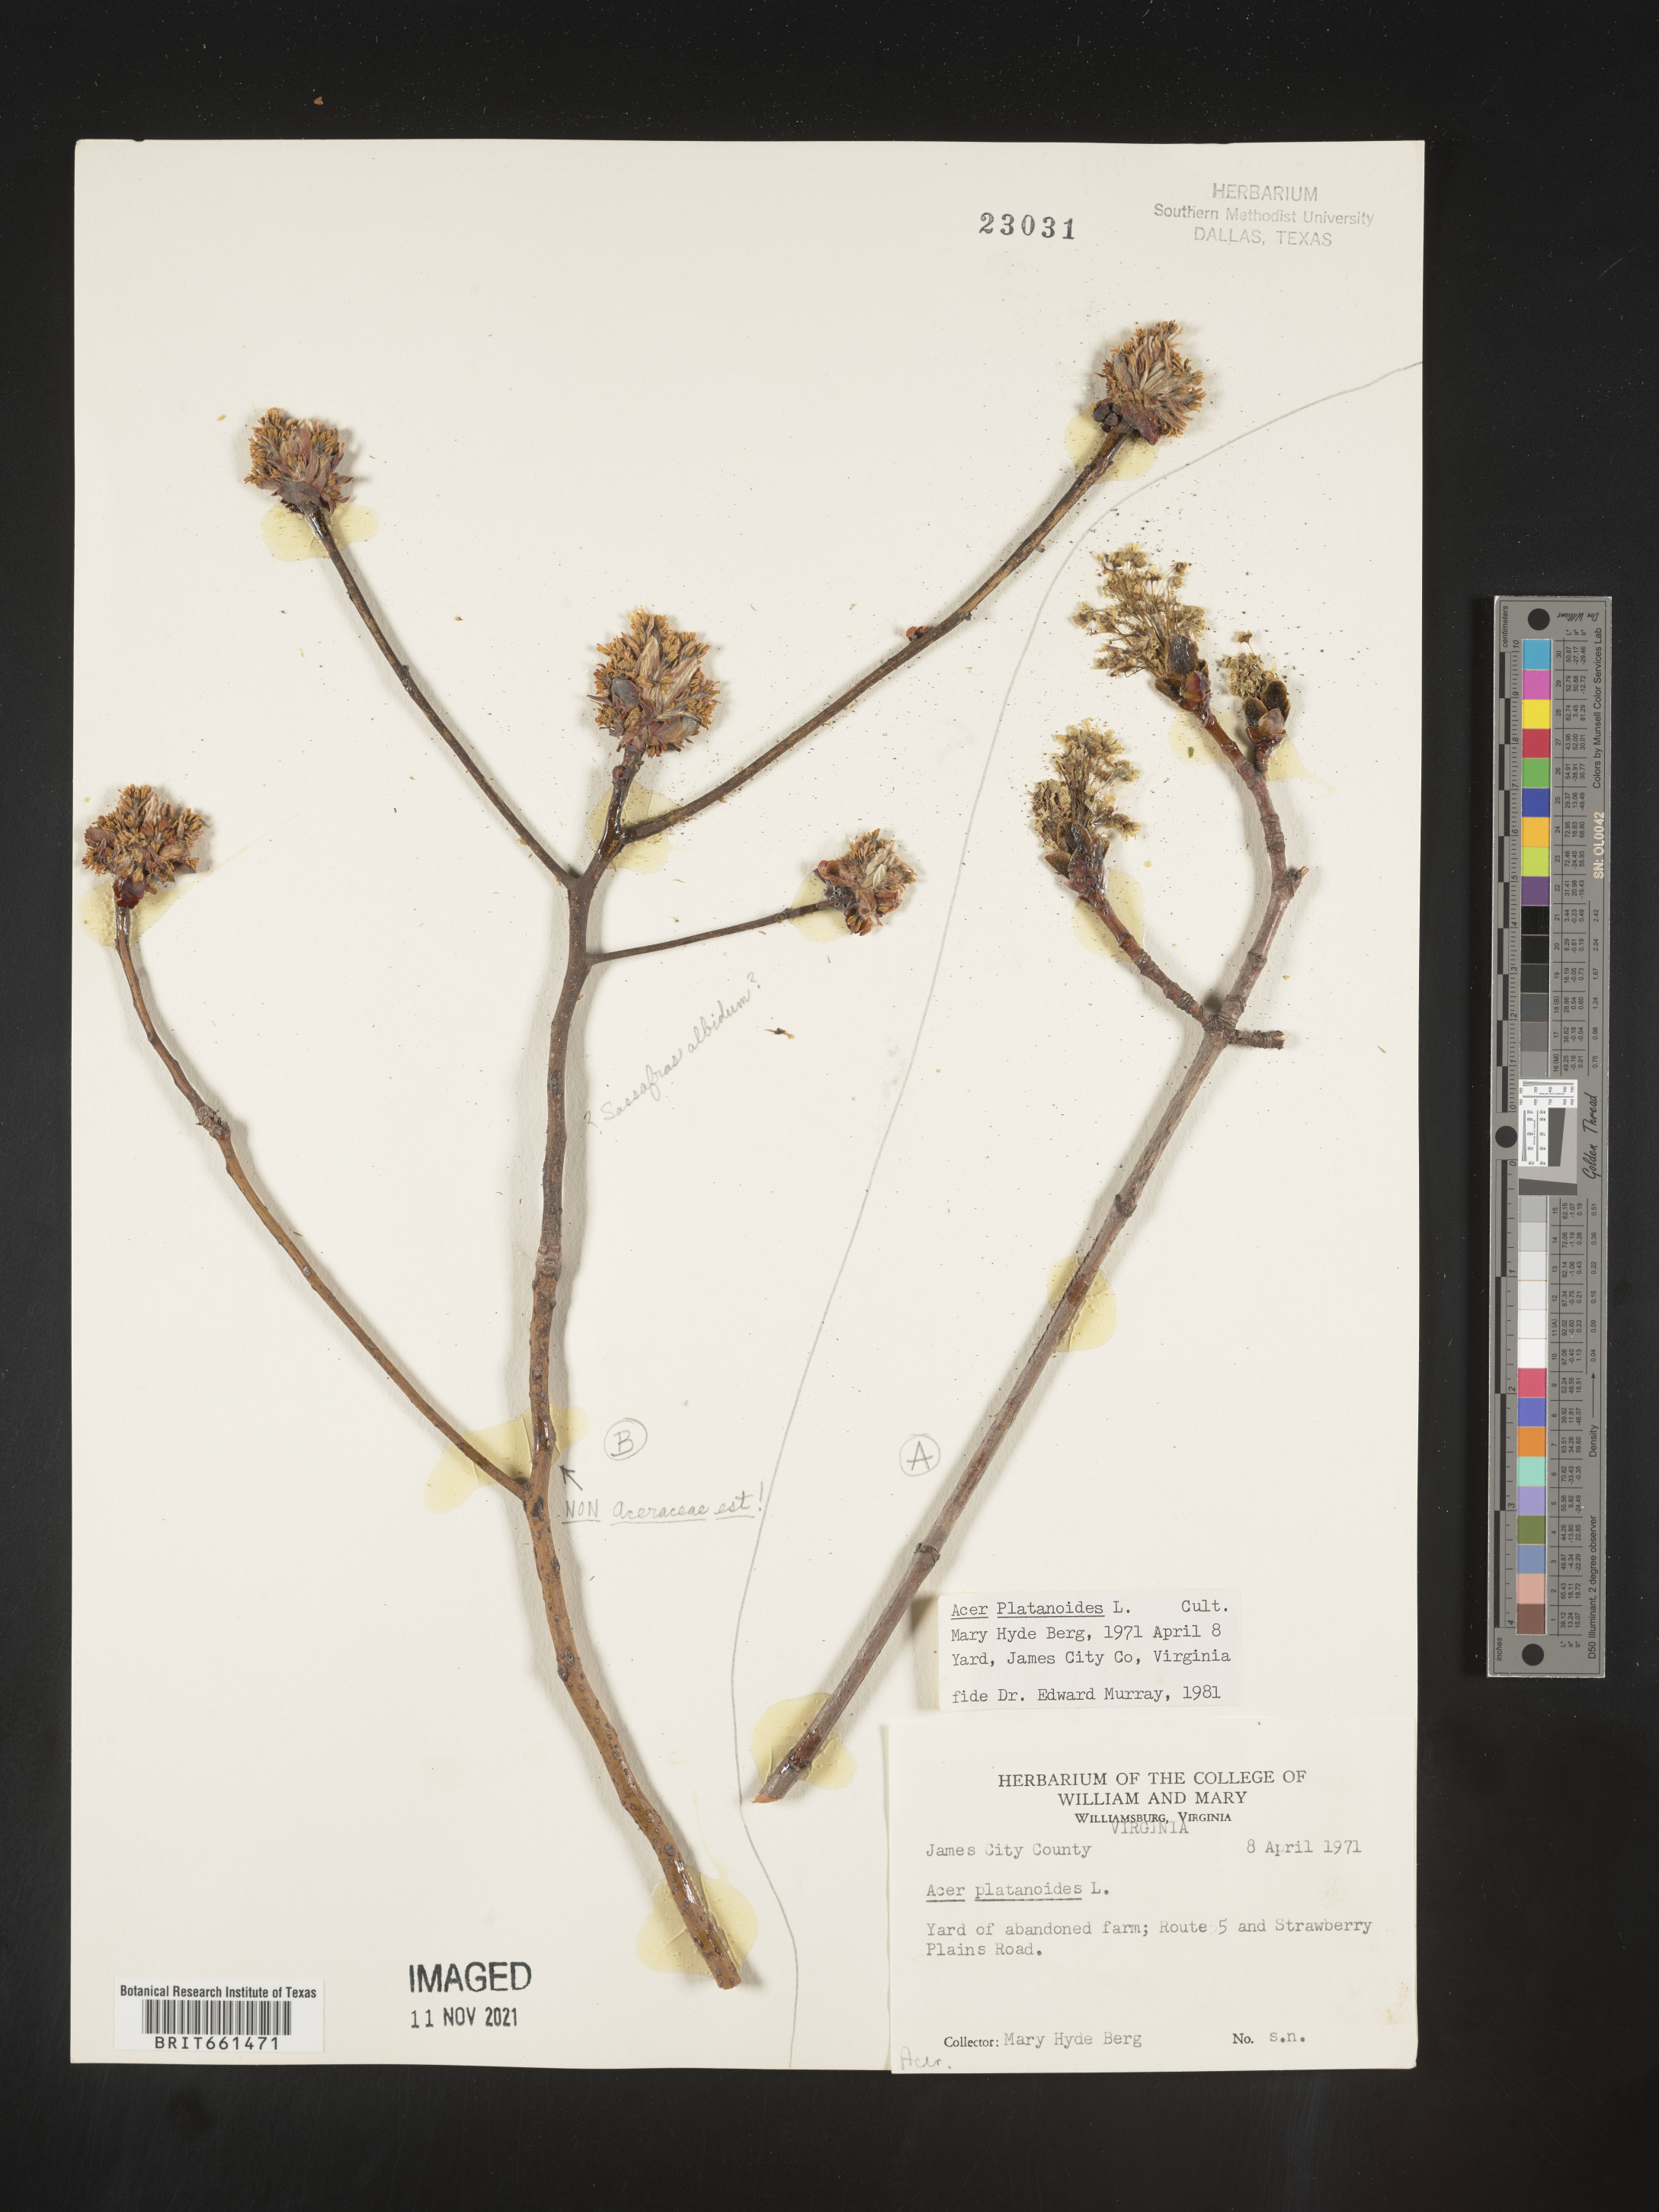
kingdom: Plantae
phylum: Tracheophyta
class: Magnoliopsida
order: Sapindales
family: Sapindaceae
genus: Acer
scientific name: Acer
